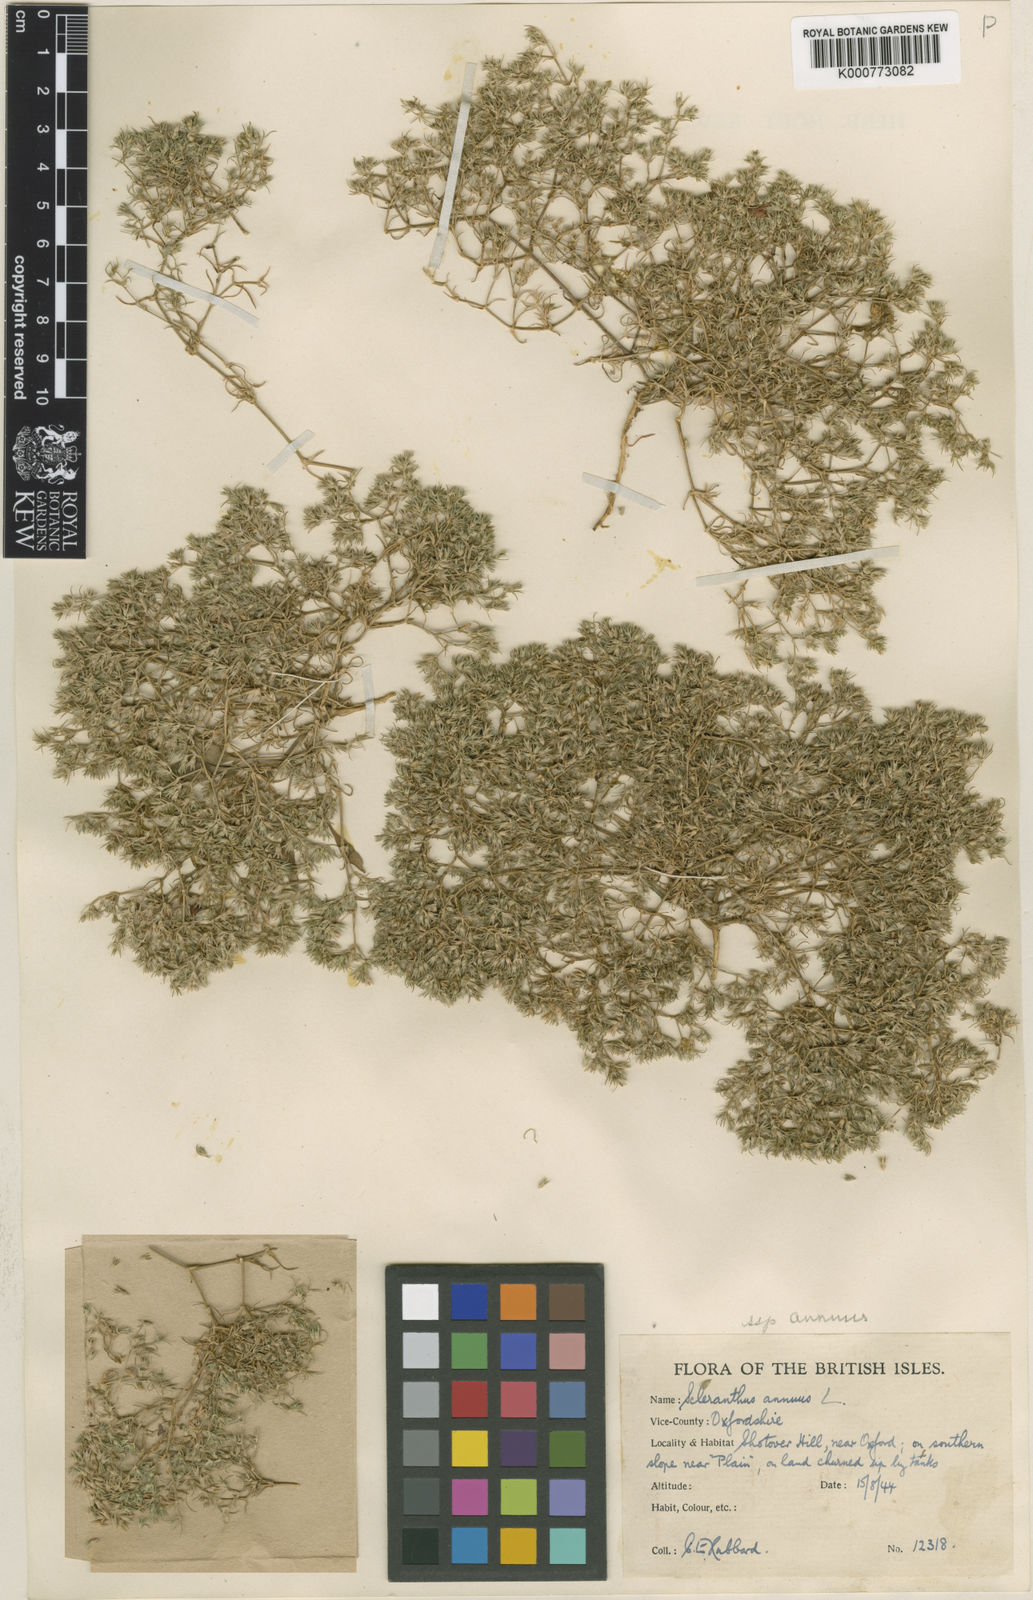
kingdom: Plantae
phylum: Tracheophyta
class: Magnoliopsida
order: Caryophyllales
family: Caryophyllaceae
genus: Scleranthus
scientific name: Scleranthus annuus
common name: Annual knawel
